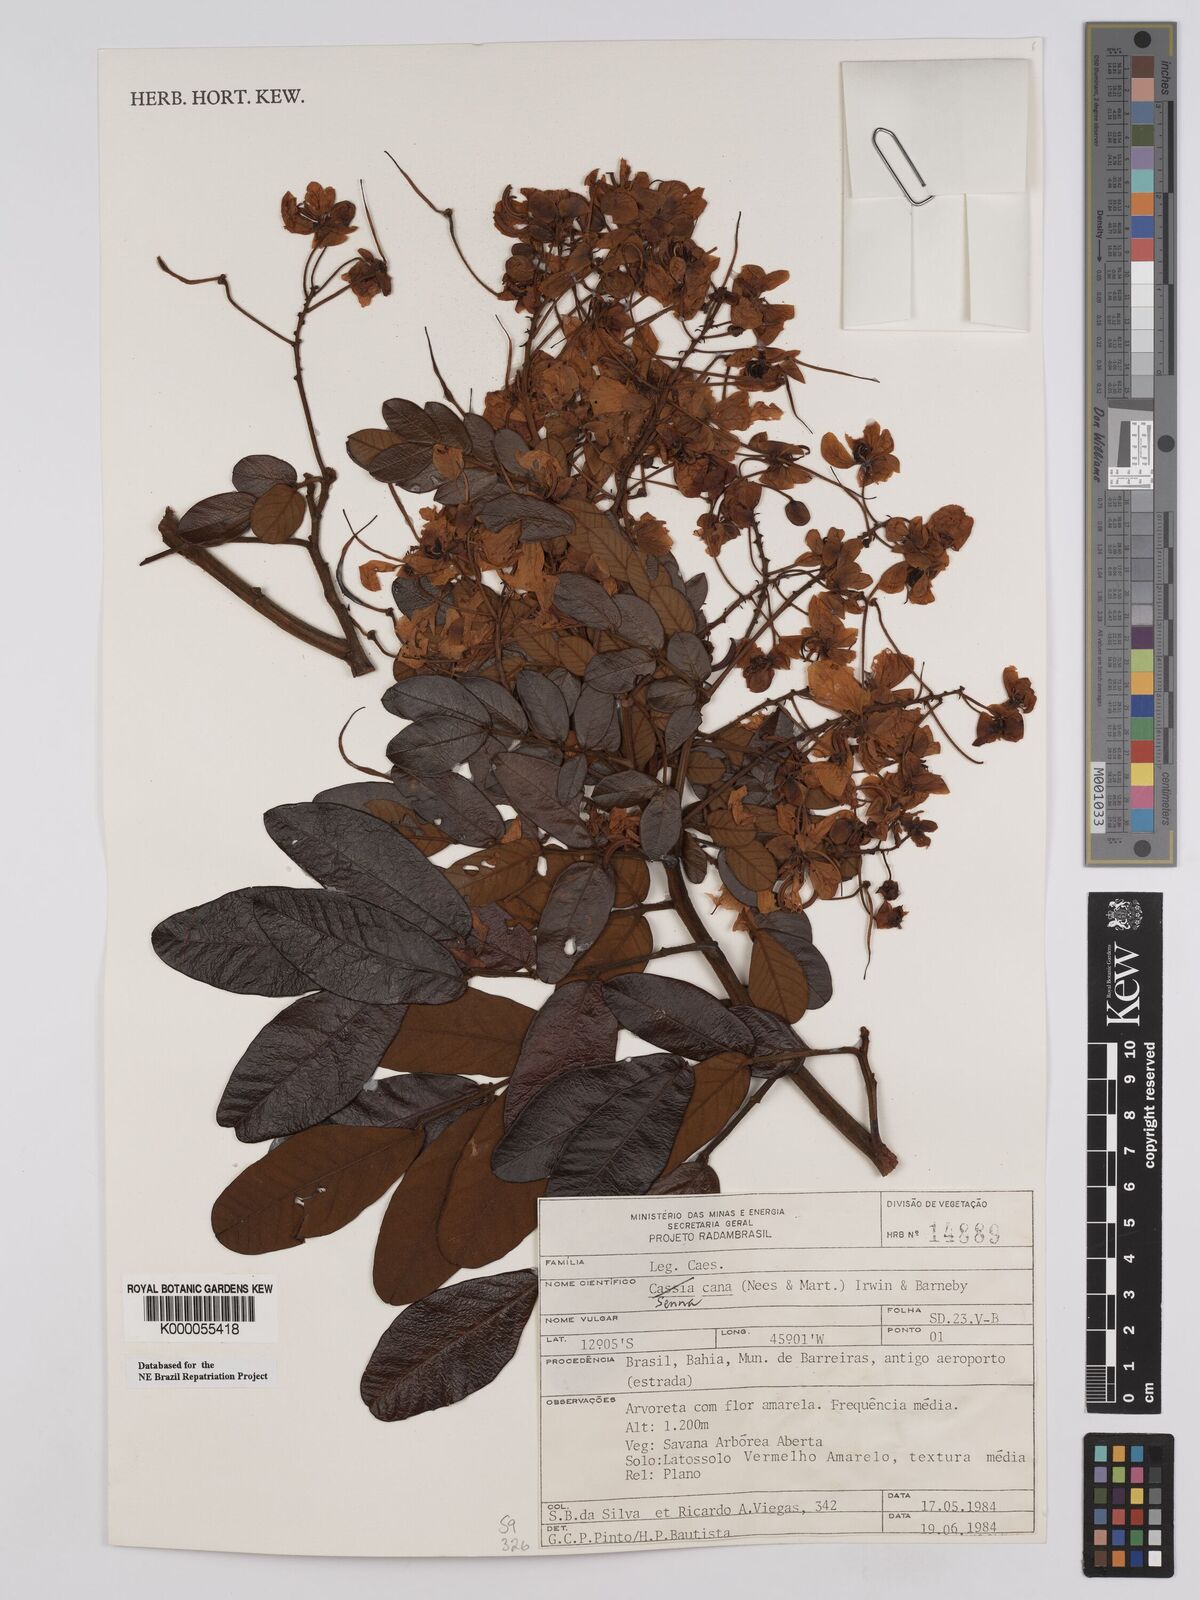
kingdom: Plantae
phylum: Tracheophyta
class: Magnoliopsida
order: Fabales
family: Fabaceae
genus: Senna
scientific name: Senna cana
